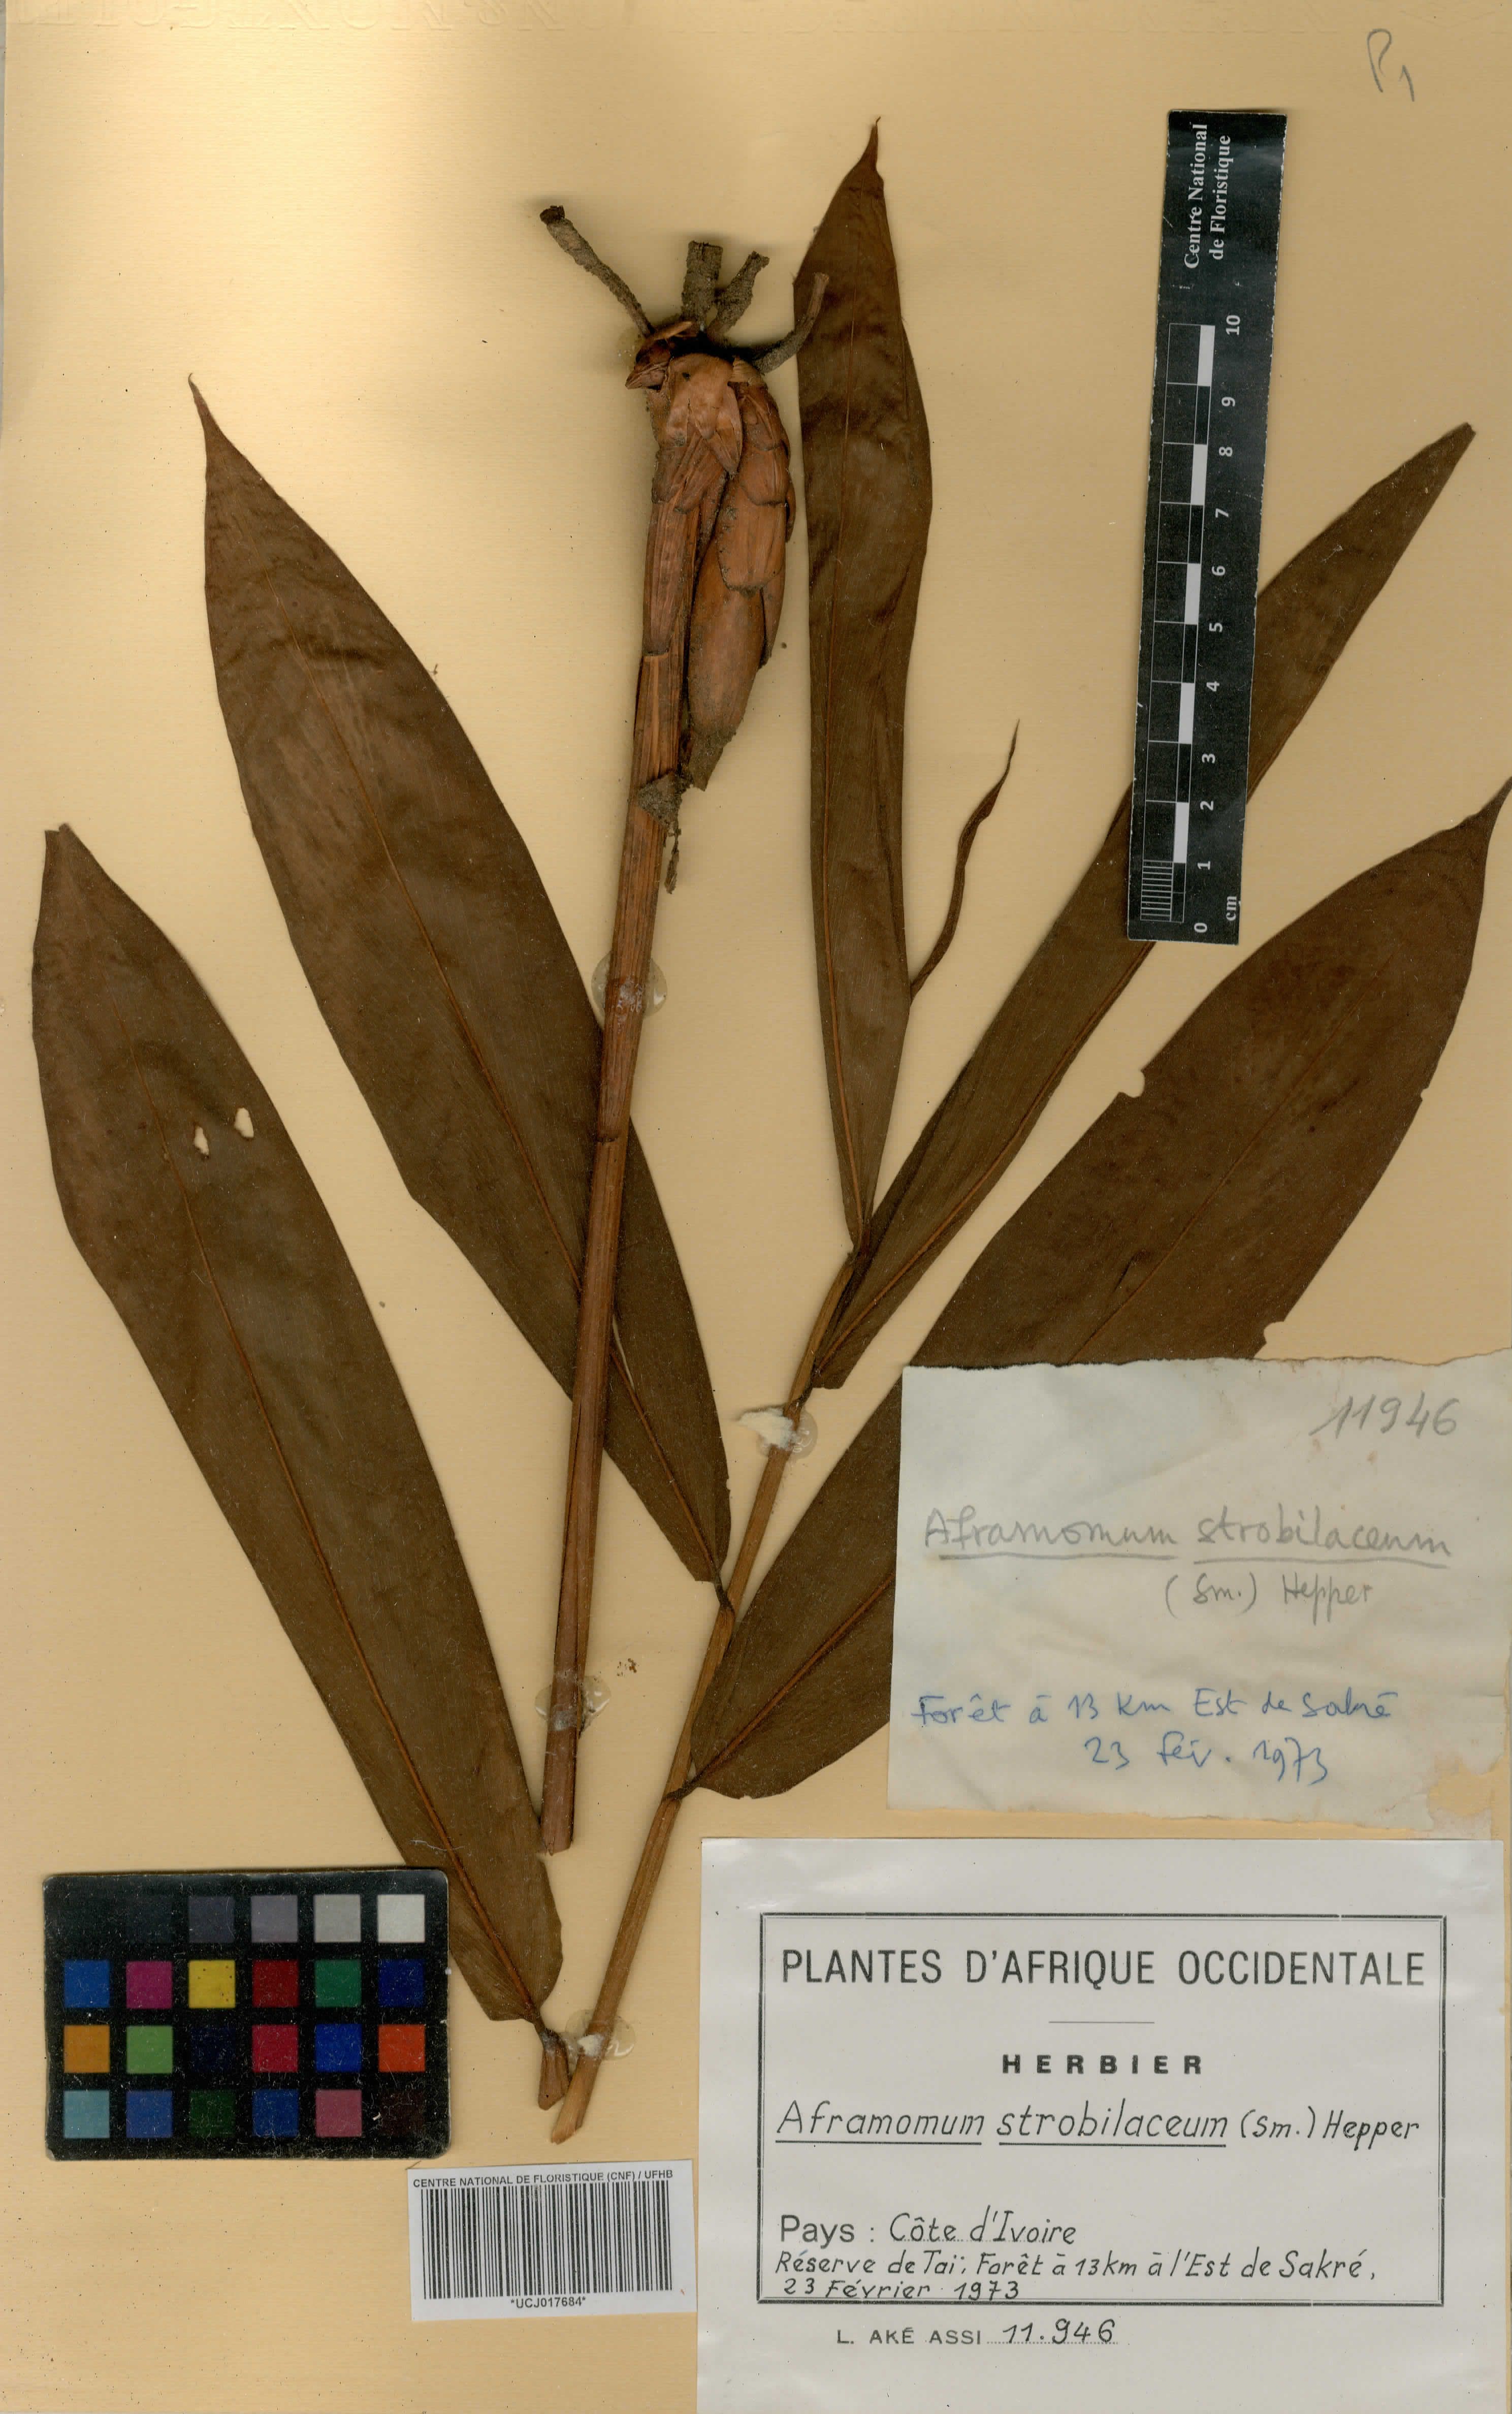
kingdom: Plantae
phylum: Tracheophyta
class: Liliopsida
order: Zingiberales
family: Zingiberaceae
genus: Aframomum
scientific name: Aframomum strobilaceum
